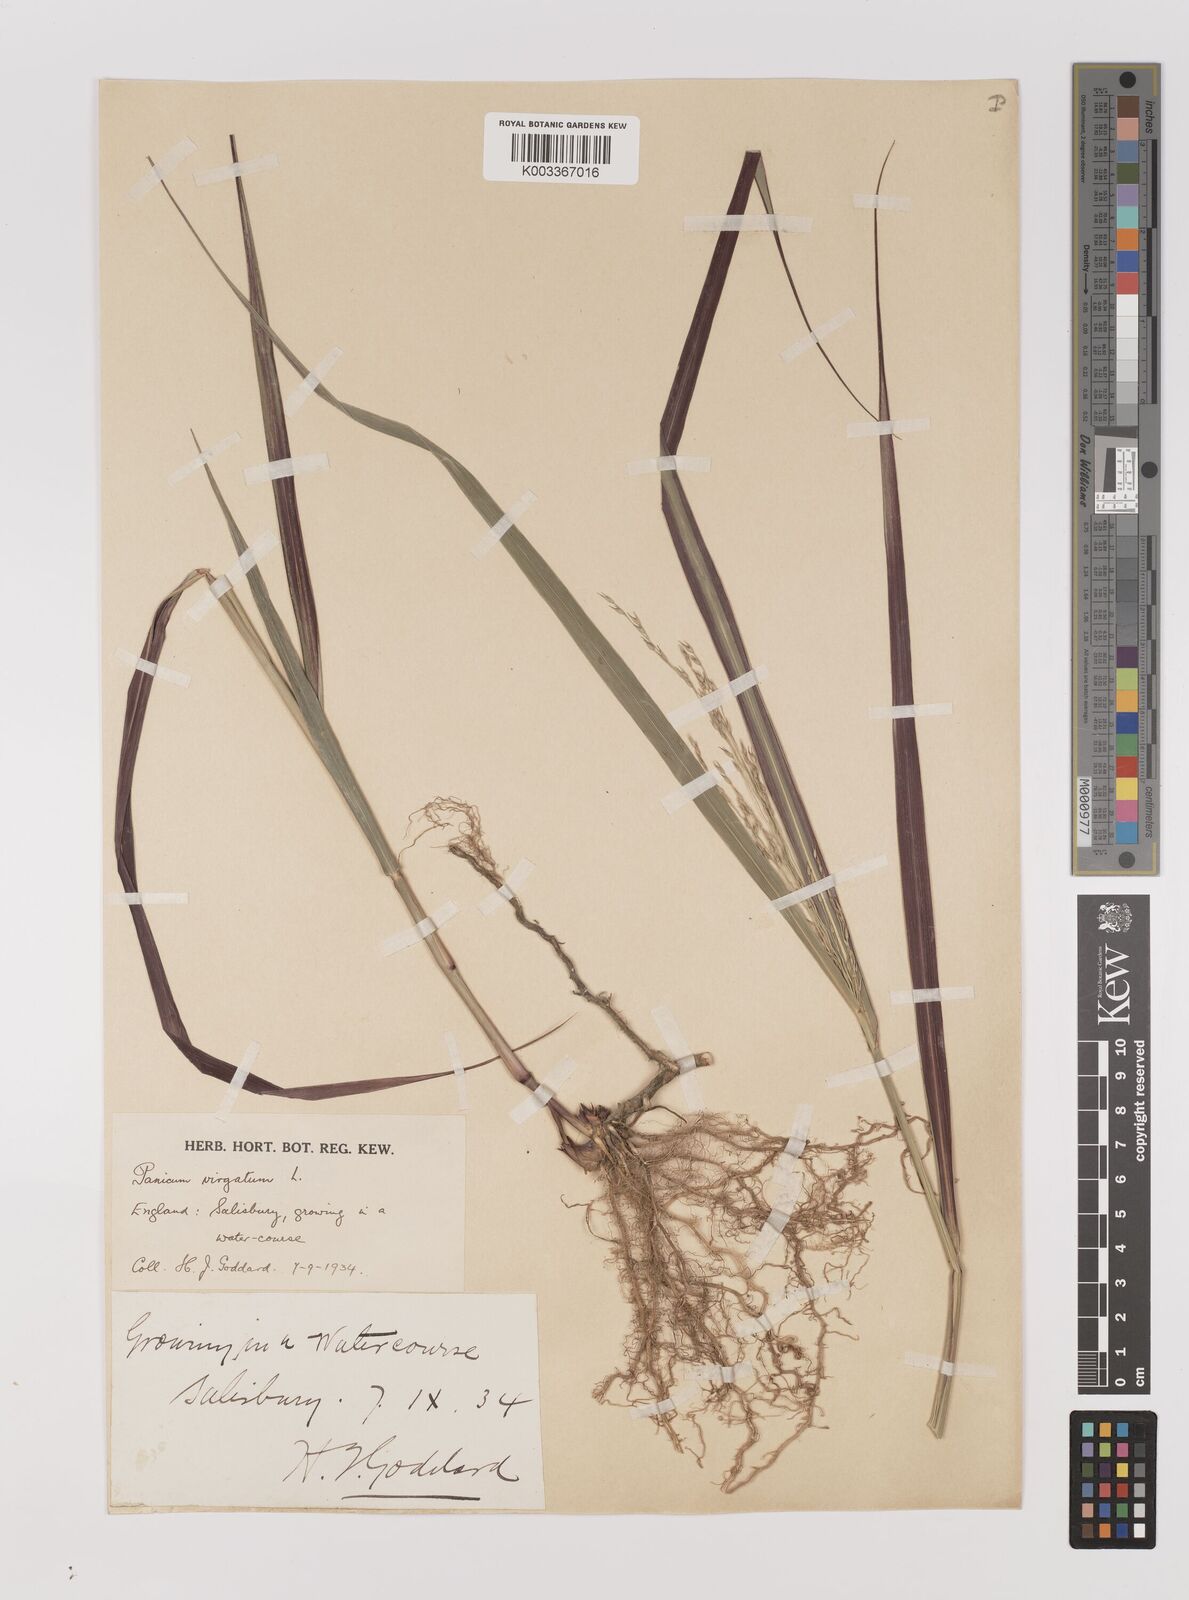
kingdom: Plantae
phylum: Tracheophyta
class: Liliopsida
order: Poales
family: Poaceae
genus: Panicum
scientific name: Panicum virgatum
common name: Switchgrass
